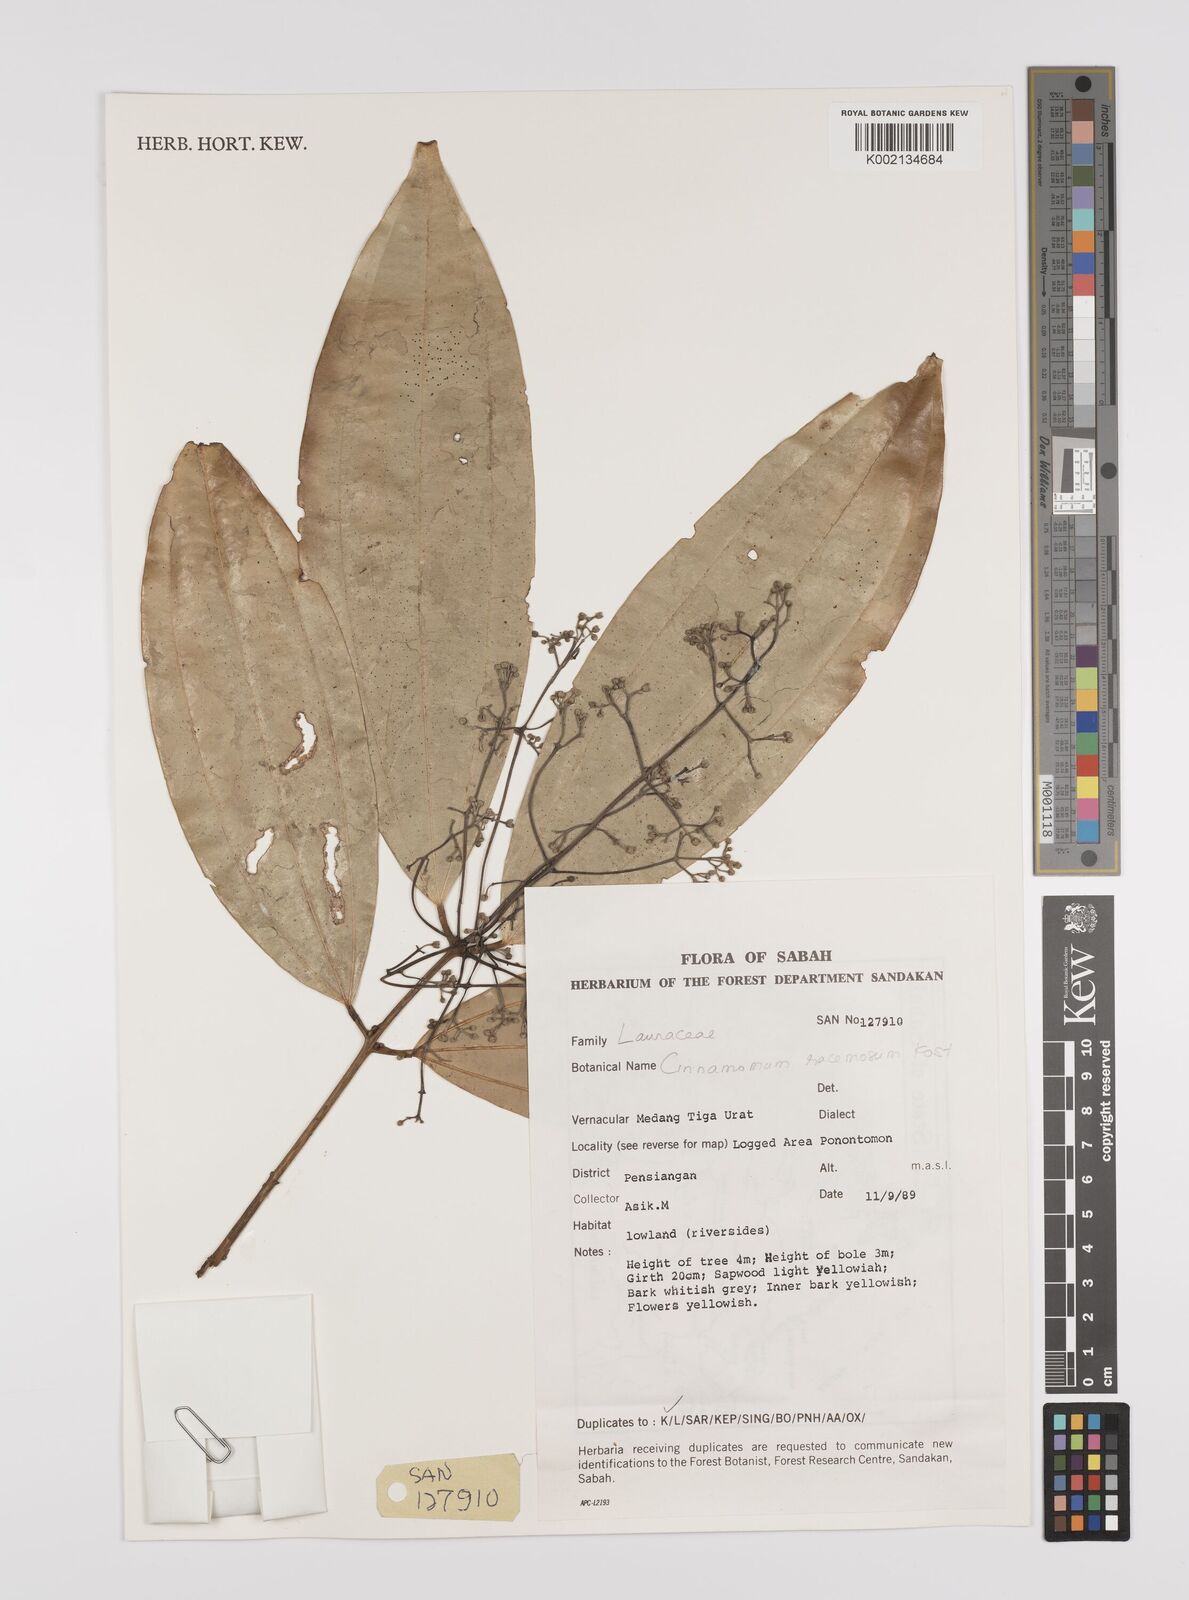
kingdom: Plantae
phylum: Tracheophyta
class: Magnoliopsida
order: Laurales
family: Lauraceae
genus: Cinnamomum
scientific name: Cinnamomum racemosum
